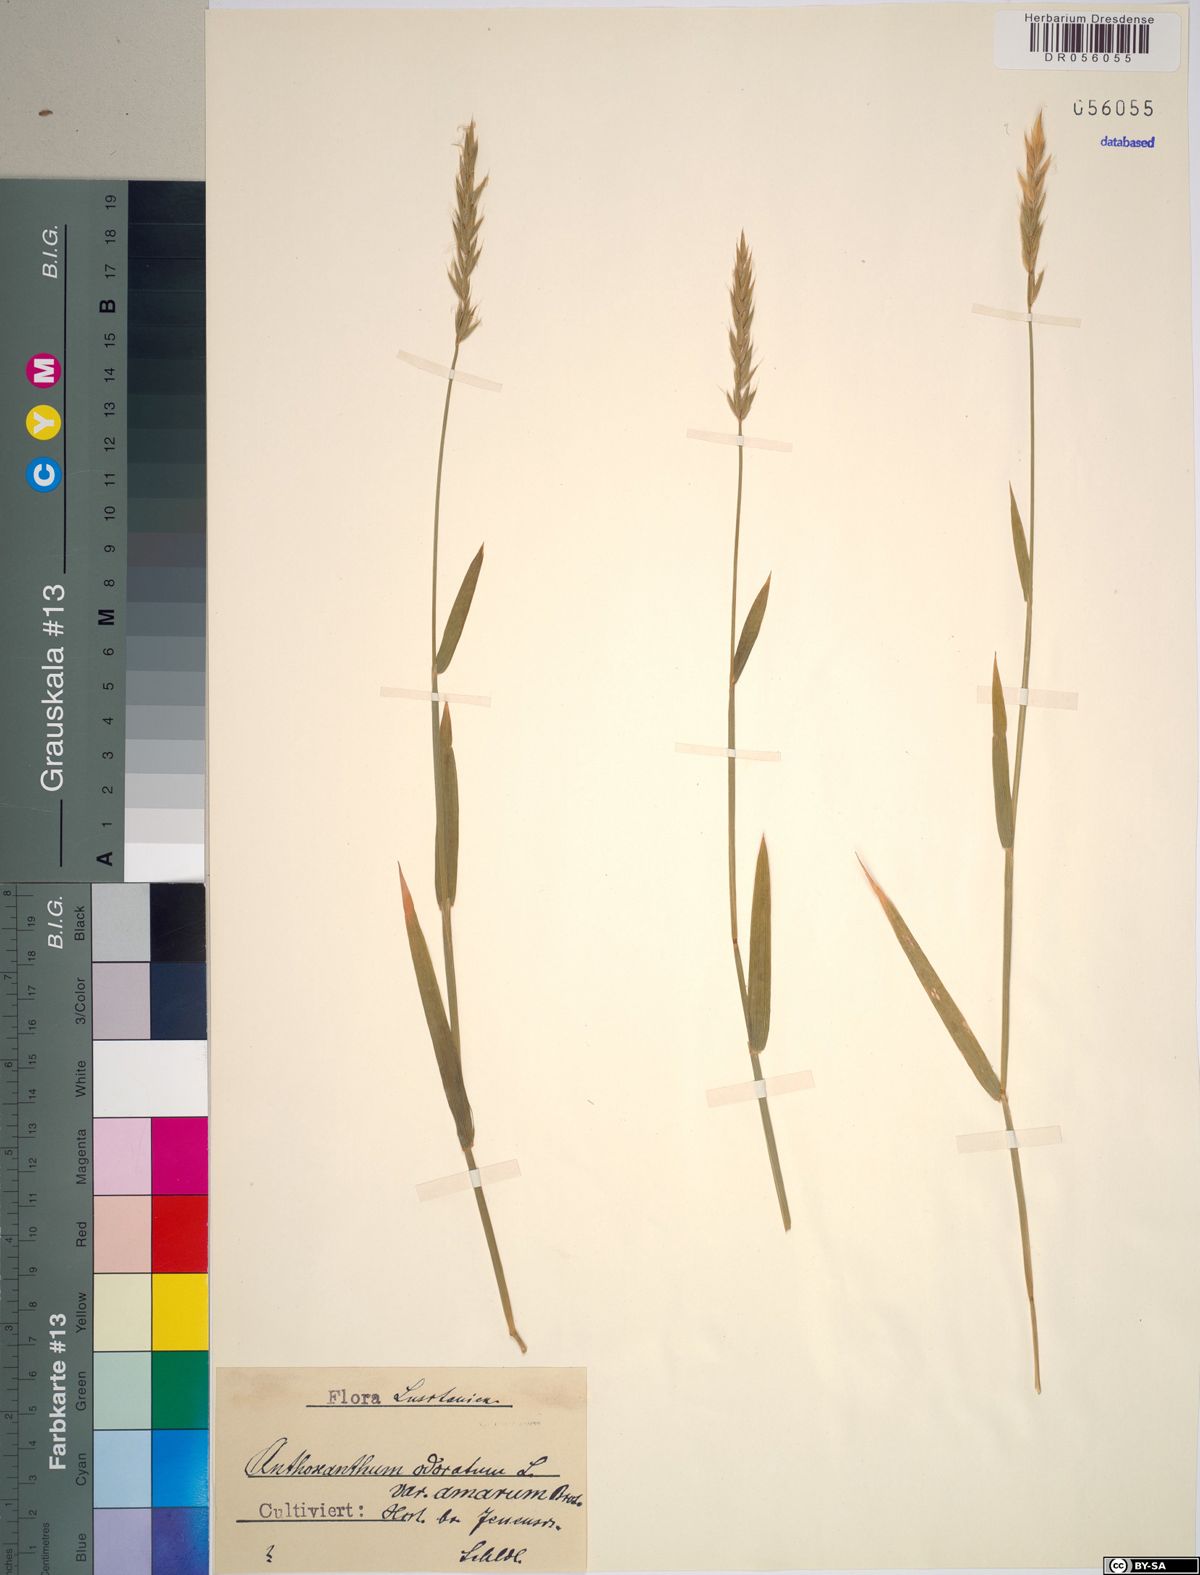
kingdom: Plantae
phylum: Tracheophyta
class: Liliopsida
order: Poales
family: Poaceae
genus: Anthoxanthum
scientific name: Anthoxanthum amarum
